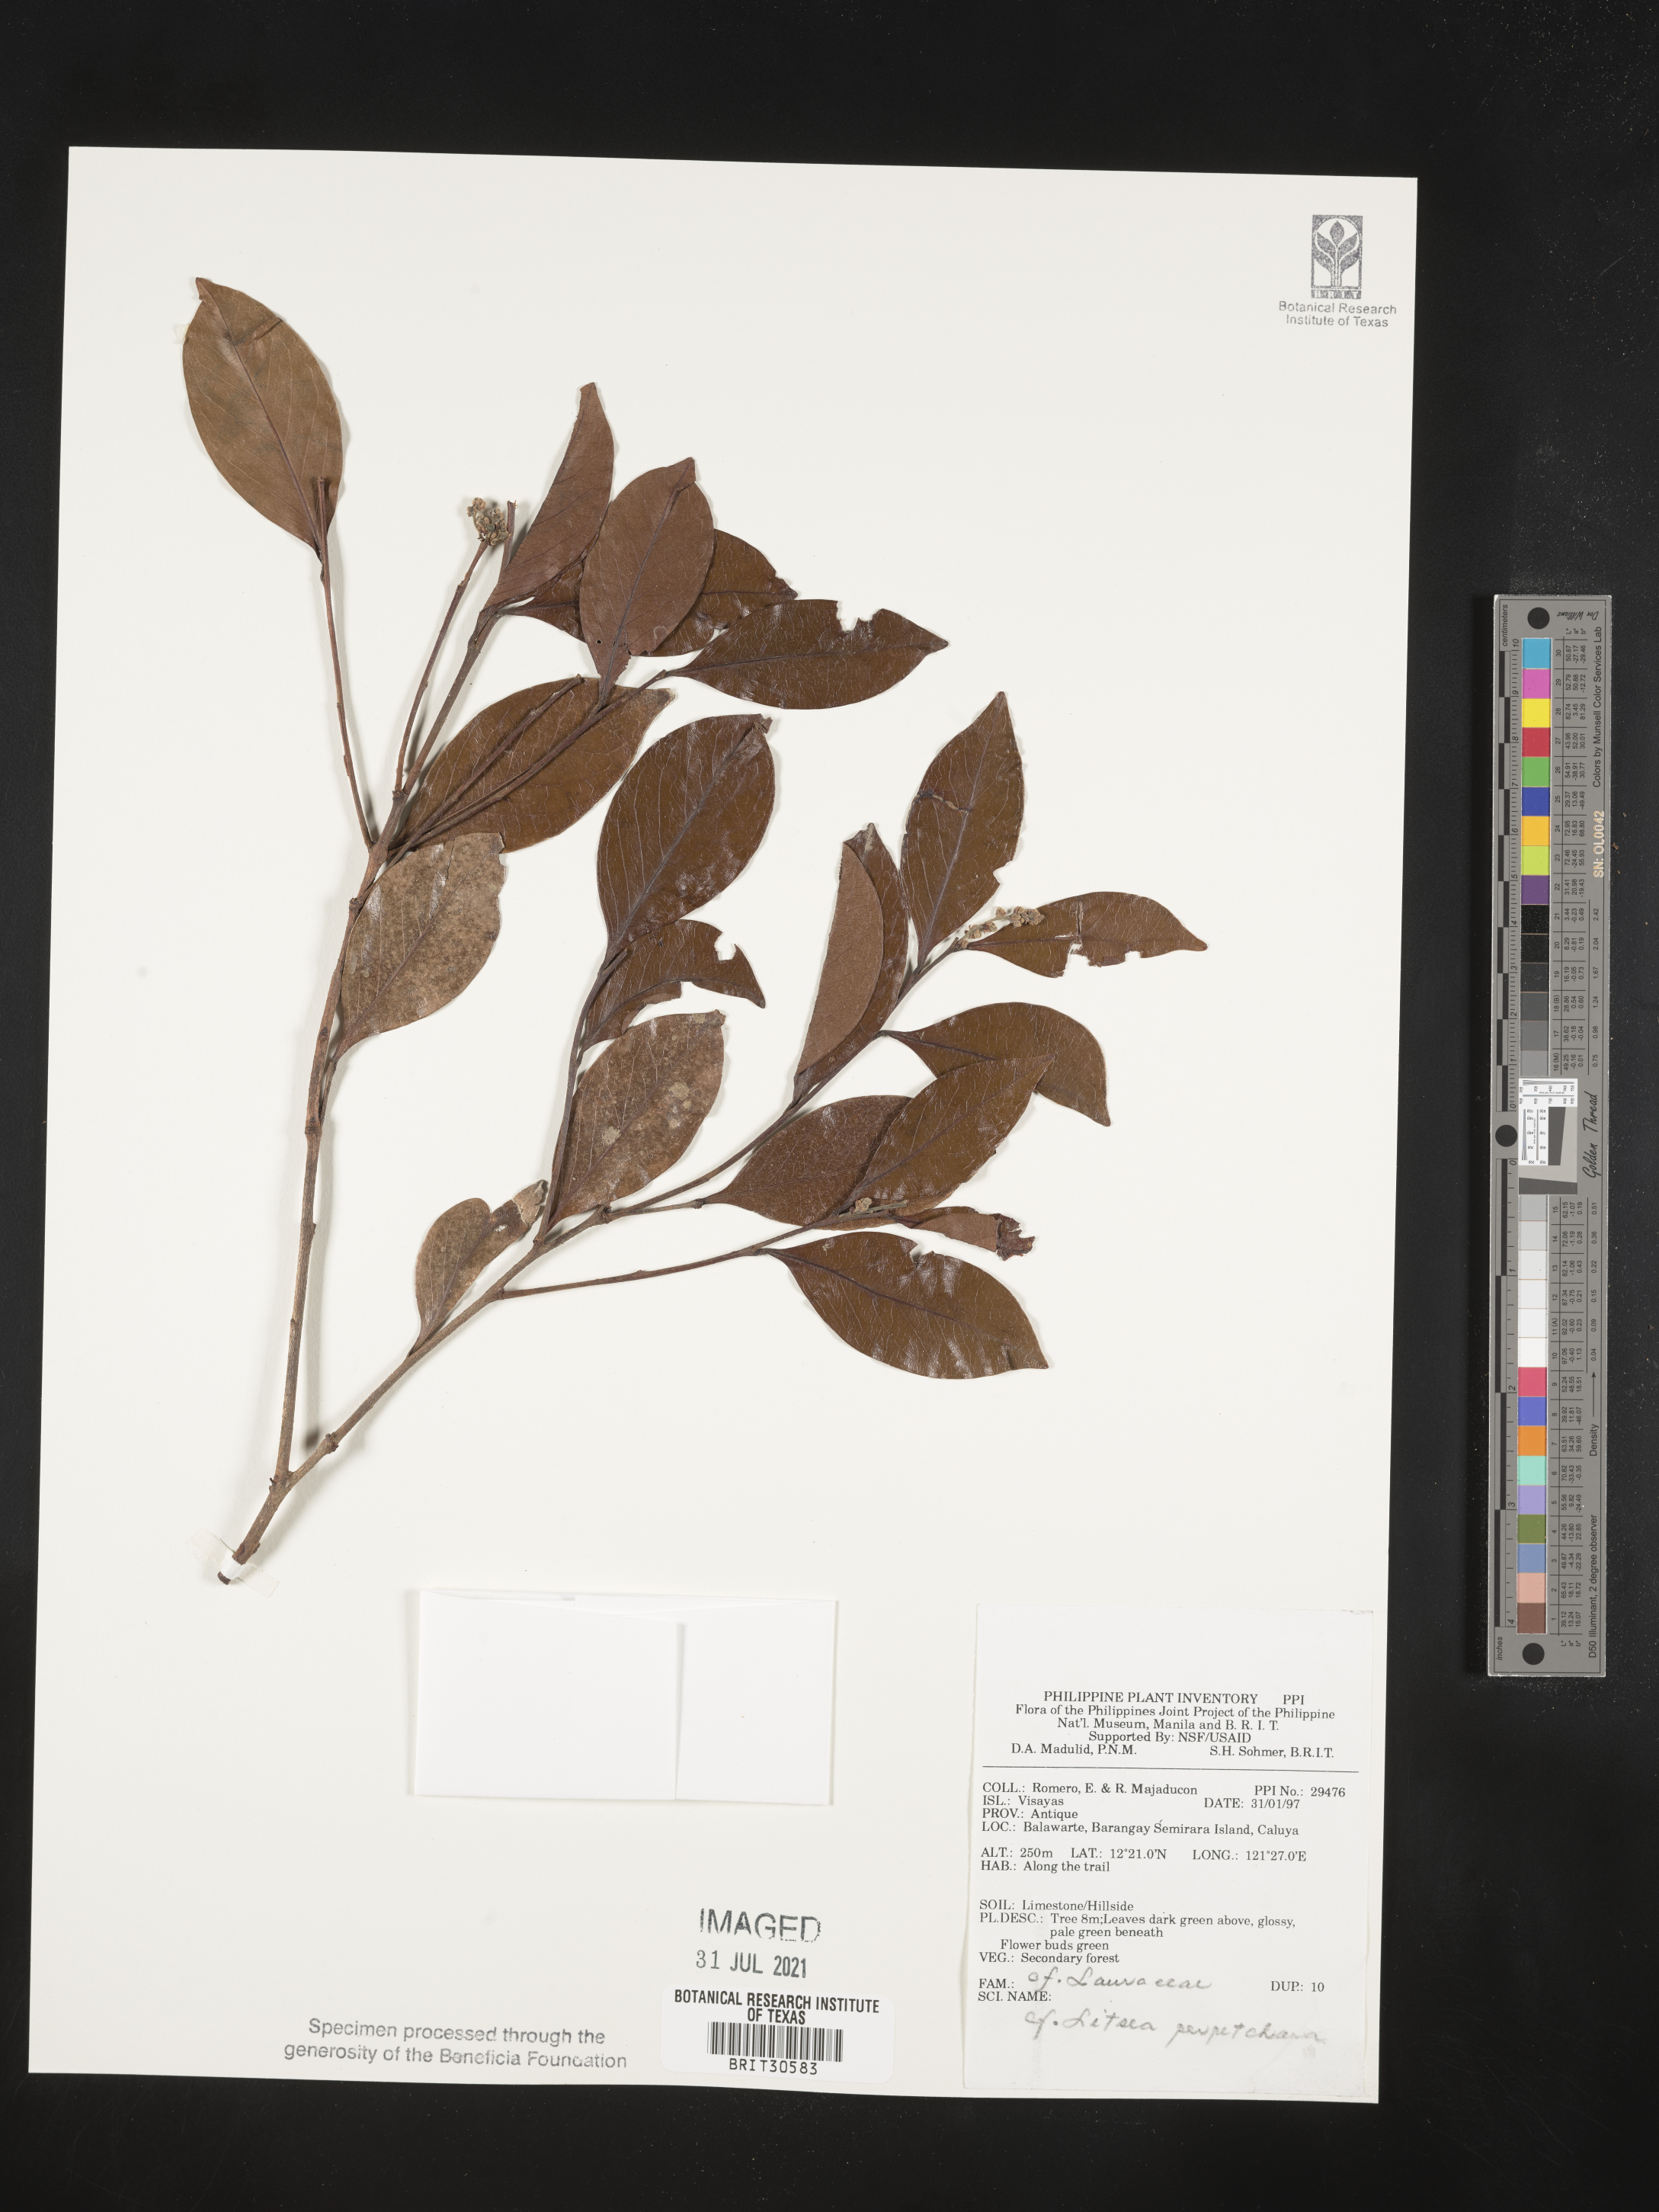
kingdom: Plantae
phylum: Tracheophyta
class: Magnoliopsida
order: Laurales
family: Lauraceae
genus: Litsea
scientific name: Litsea
